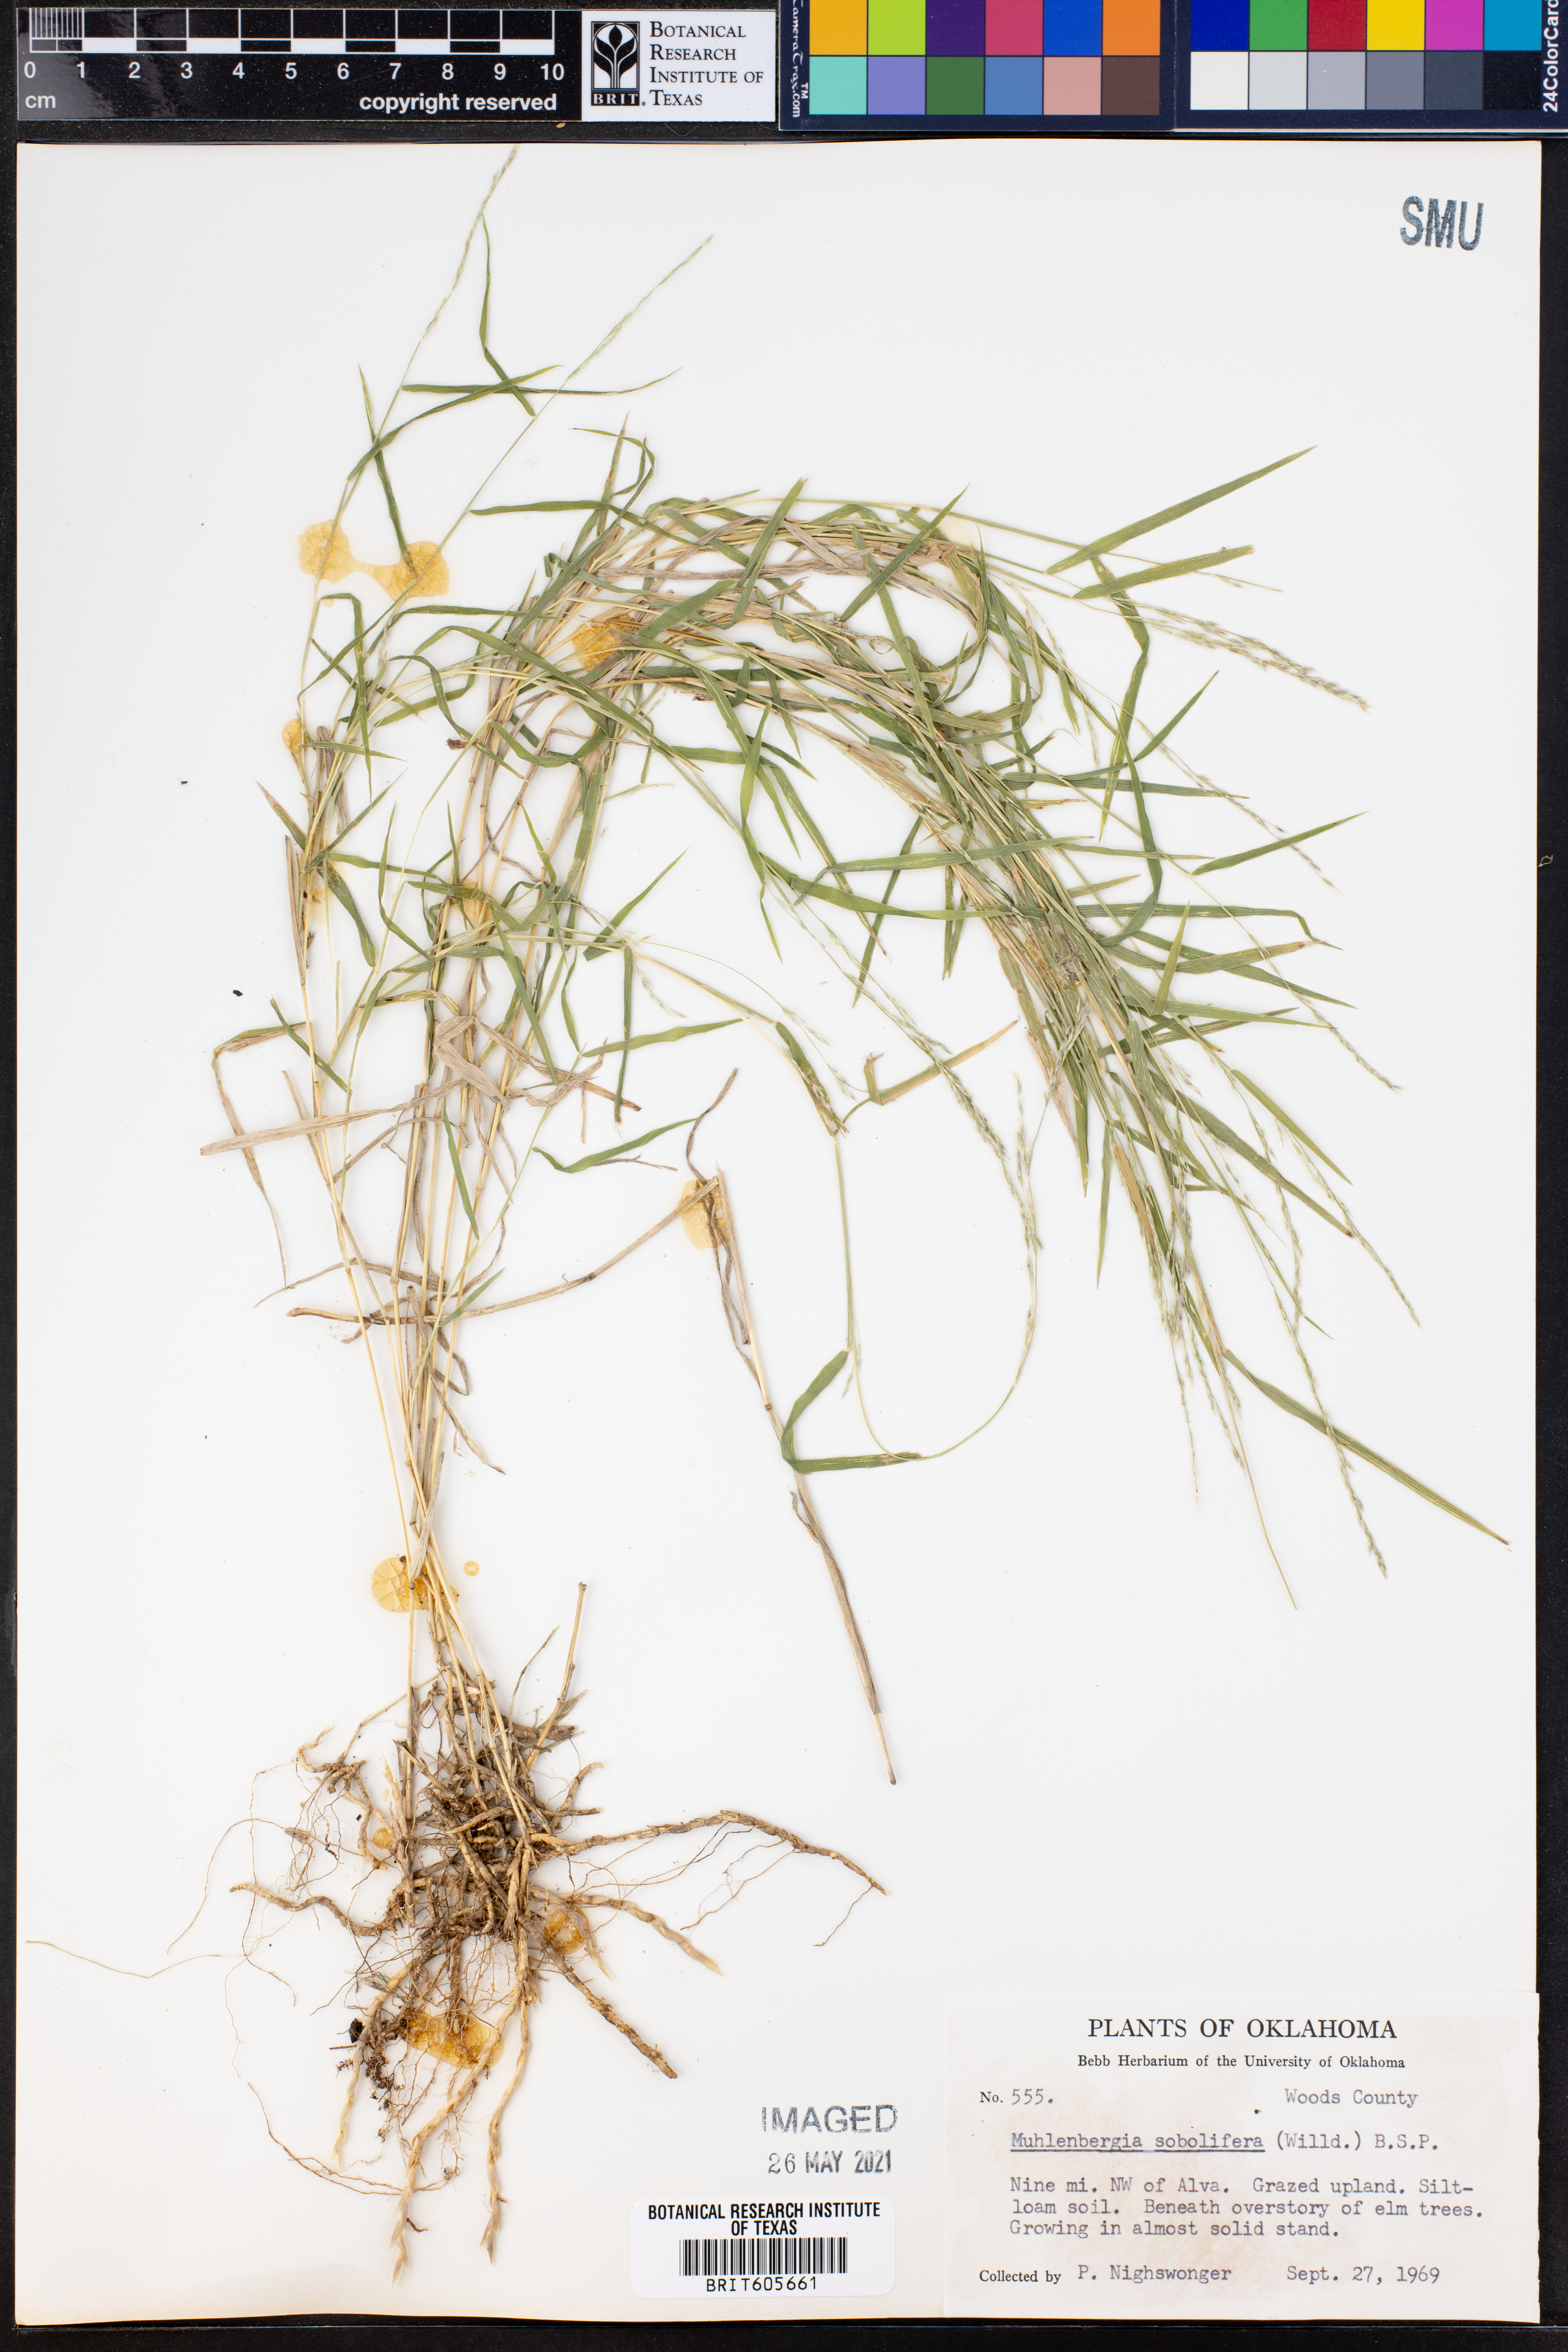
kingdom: Plantae
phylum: Tracheophyta
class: Liliopsida
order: Poales
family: Poaceae
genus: Muhlenbergia
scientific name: Muhlenbergia sobolifera
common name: Creeping muhly
